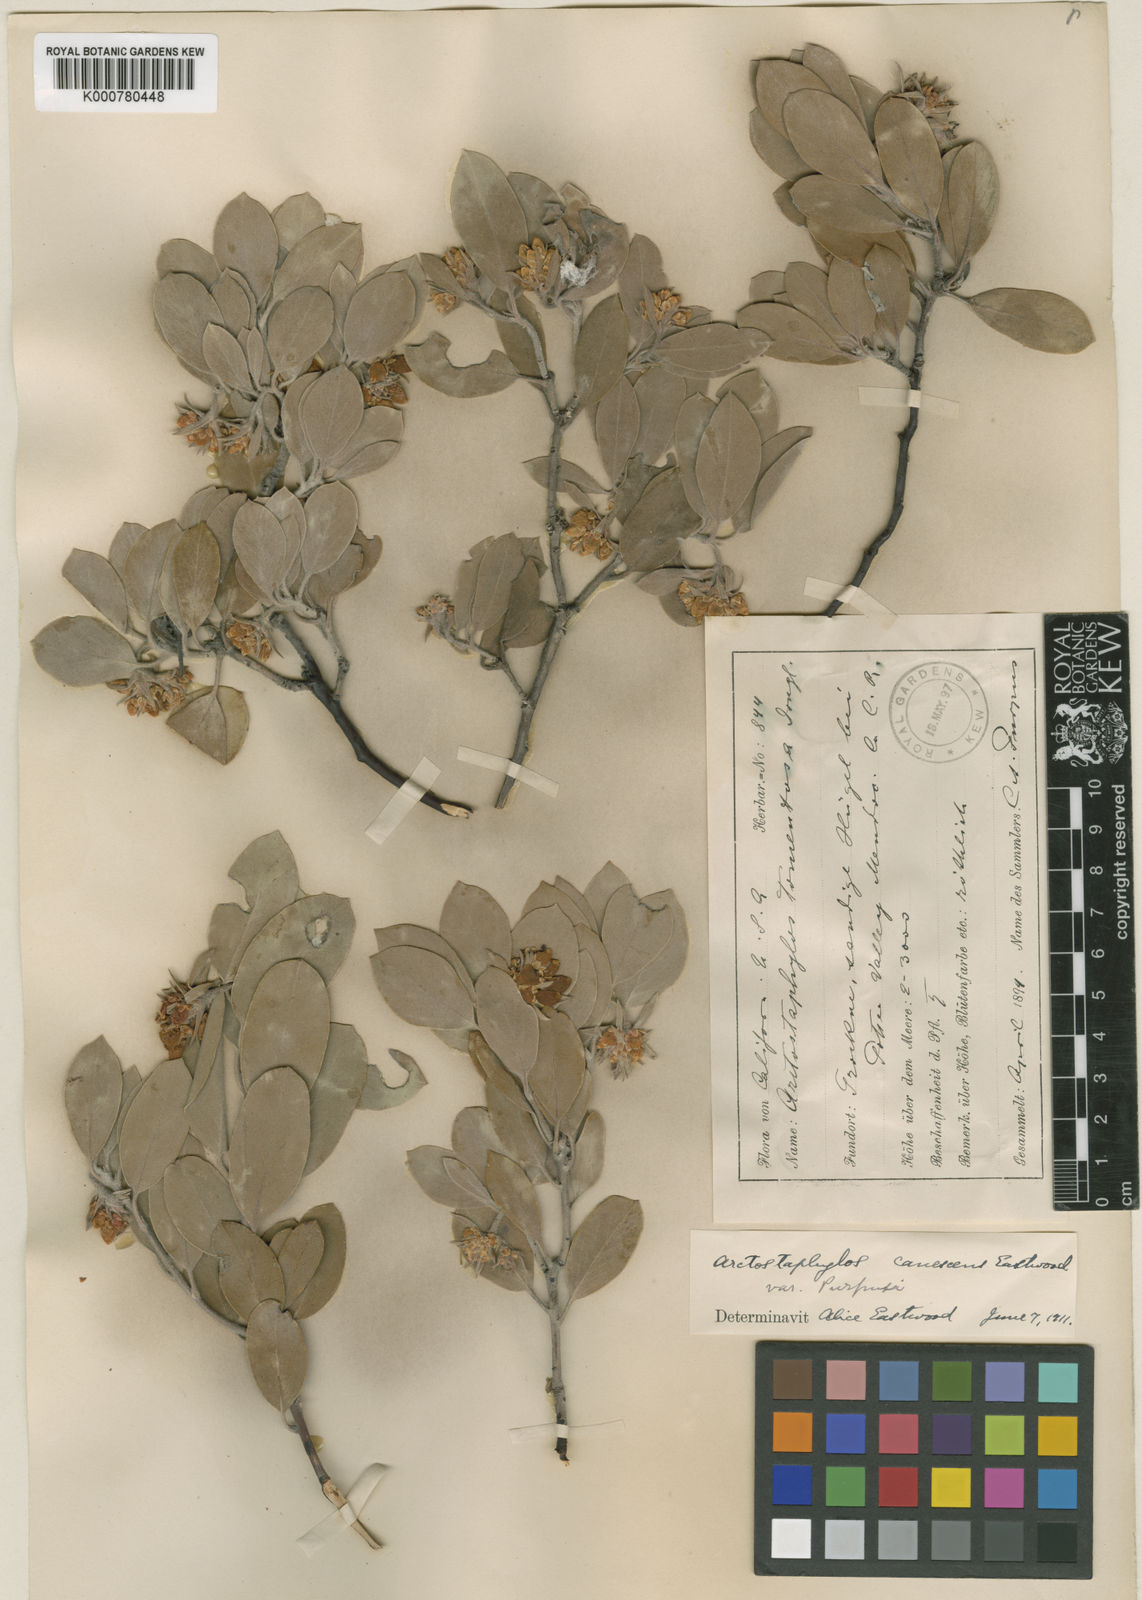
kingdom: Plantae
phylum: Tracheophyta
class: Magnoliopsida
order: Ericales
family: Ericaceae
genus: Arctostaphylos
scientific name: Arctostaphylos canescens
